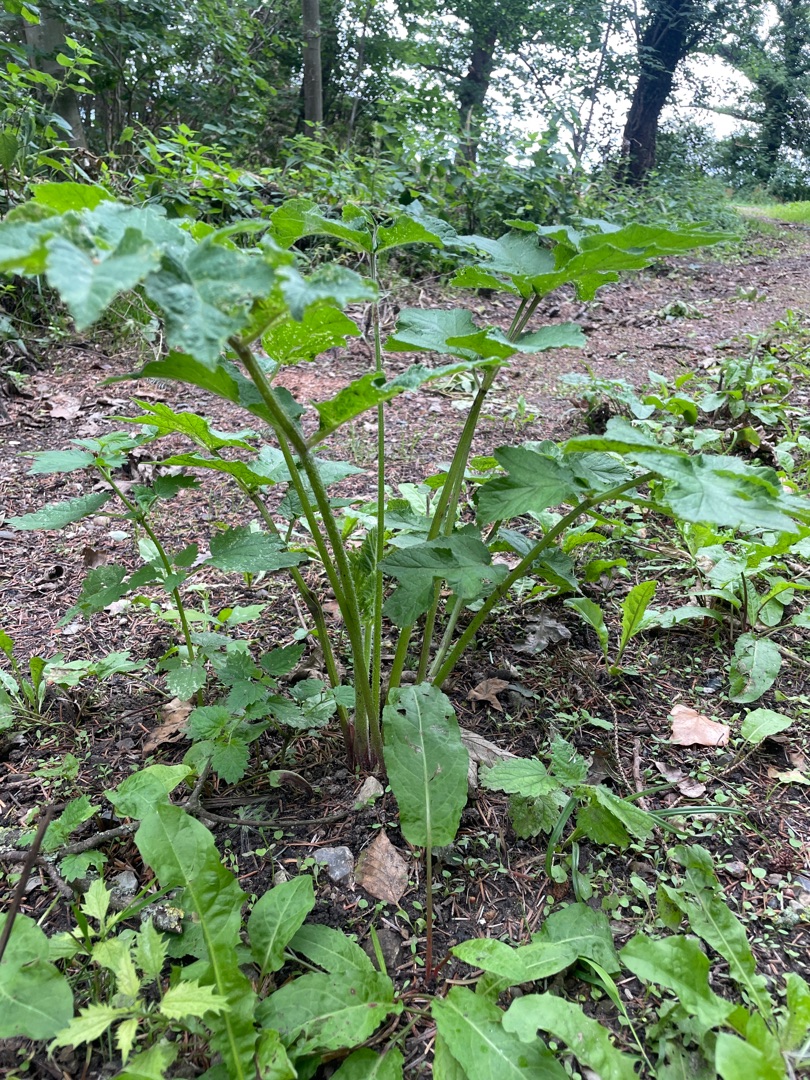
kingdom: Plantae
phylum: Tracheophyta
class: Magnoliopsida
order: Apiales
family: Apiaceae
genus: Heracleum
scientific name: Heracleum sphondylium
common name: Almindelig bjørneklo
